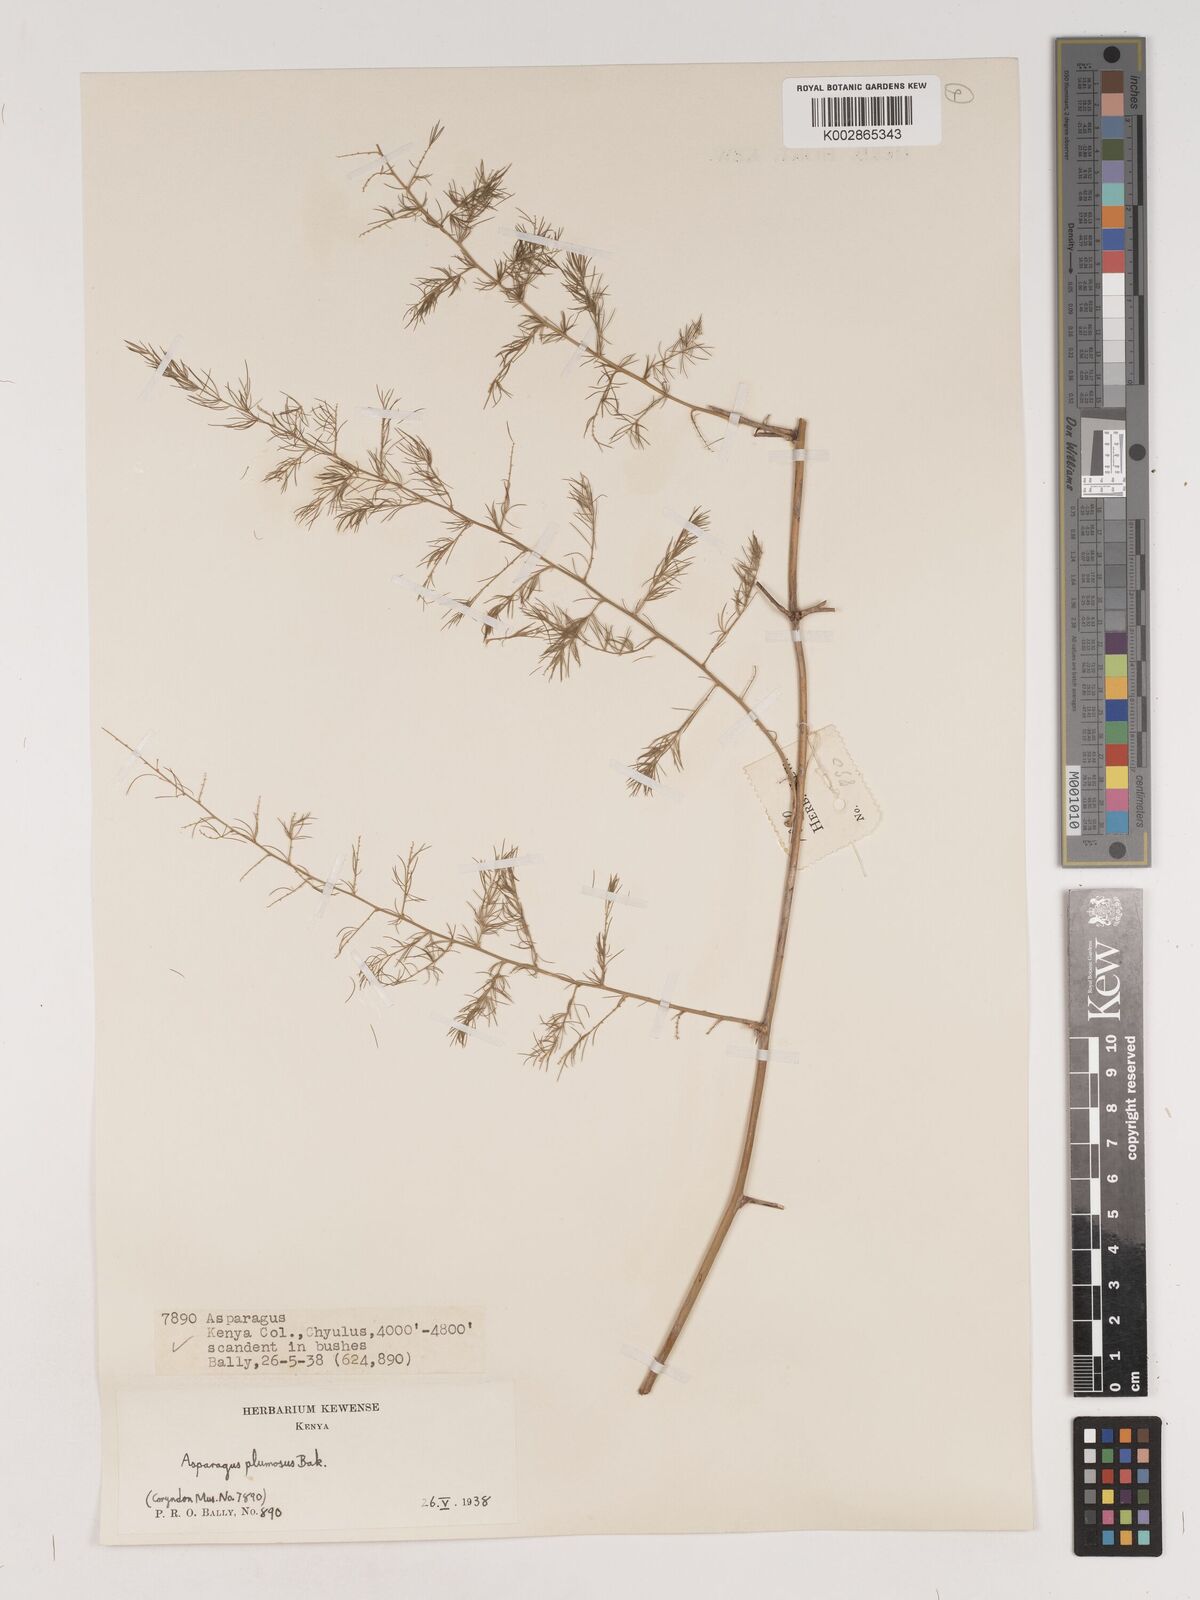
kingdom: Plantae
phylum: Tracheophyta
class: Liliopsida
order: Asparagales
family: Asparagaceae
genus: Asparagus
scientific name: Asparagus
